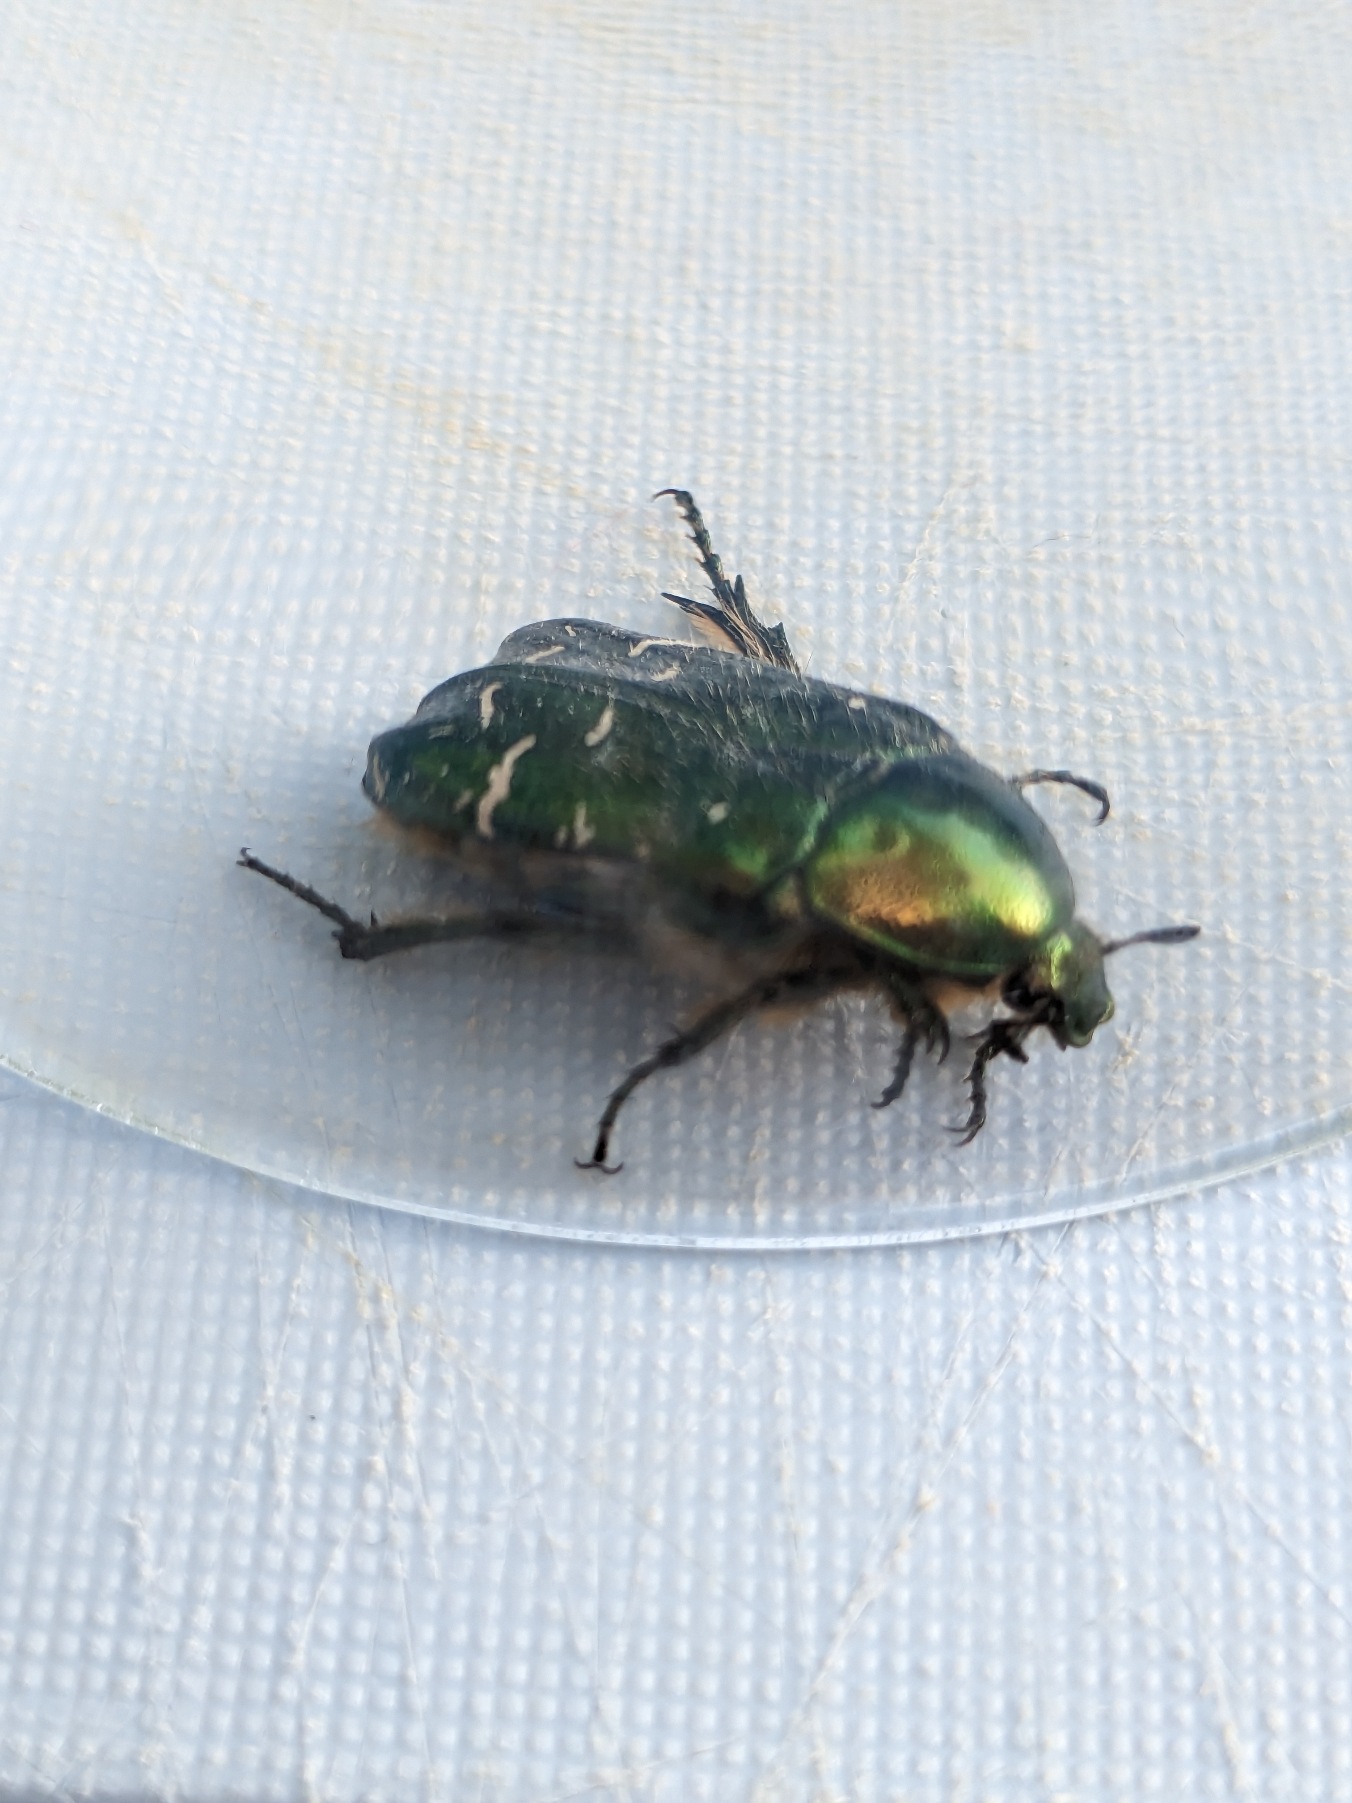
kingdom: Animalia
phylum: Arthropoda
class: Insecta
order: Coleoptera
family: Scarabaeidae
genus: Cetonia
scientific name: Cetonia aurata
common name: Grøn guldbasse
